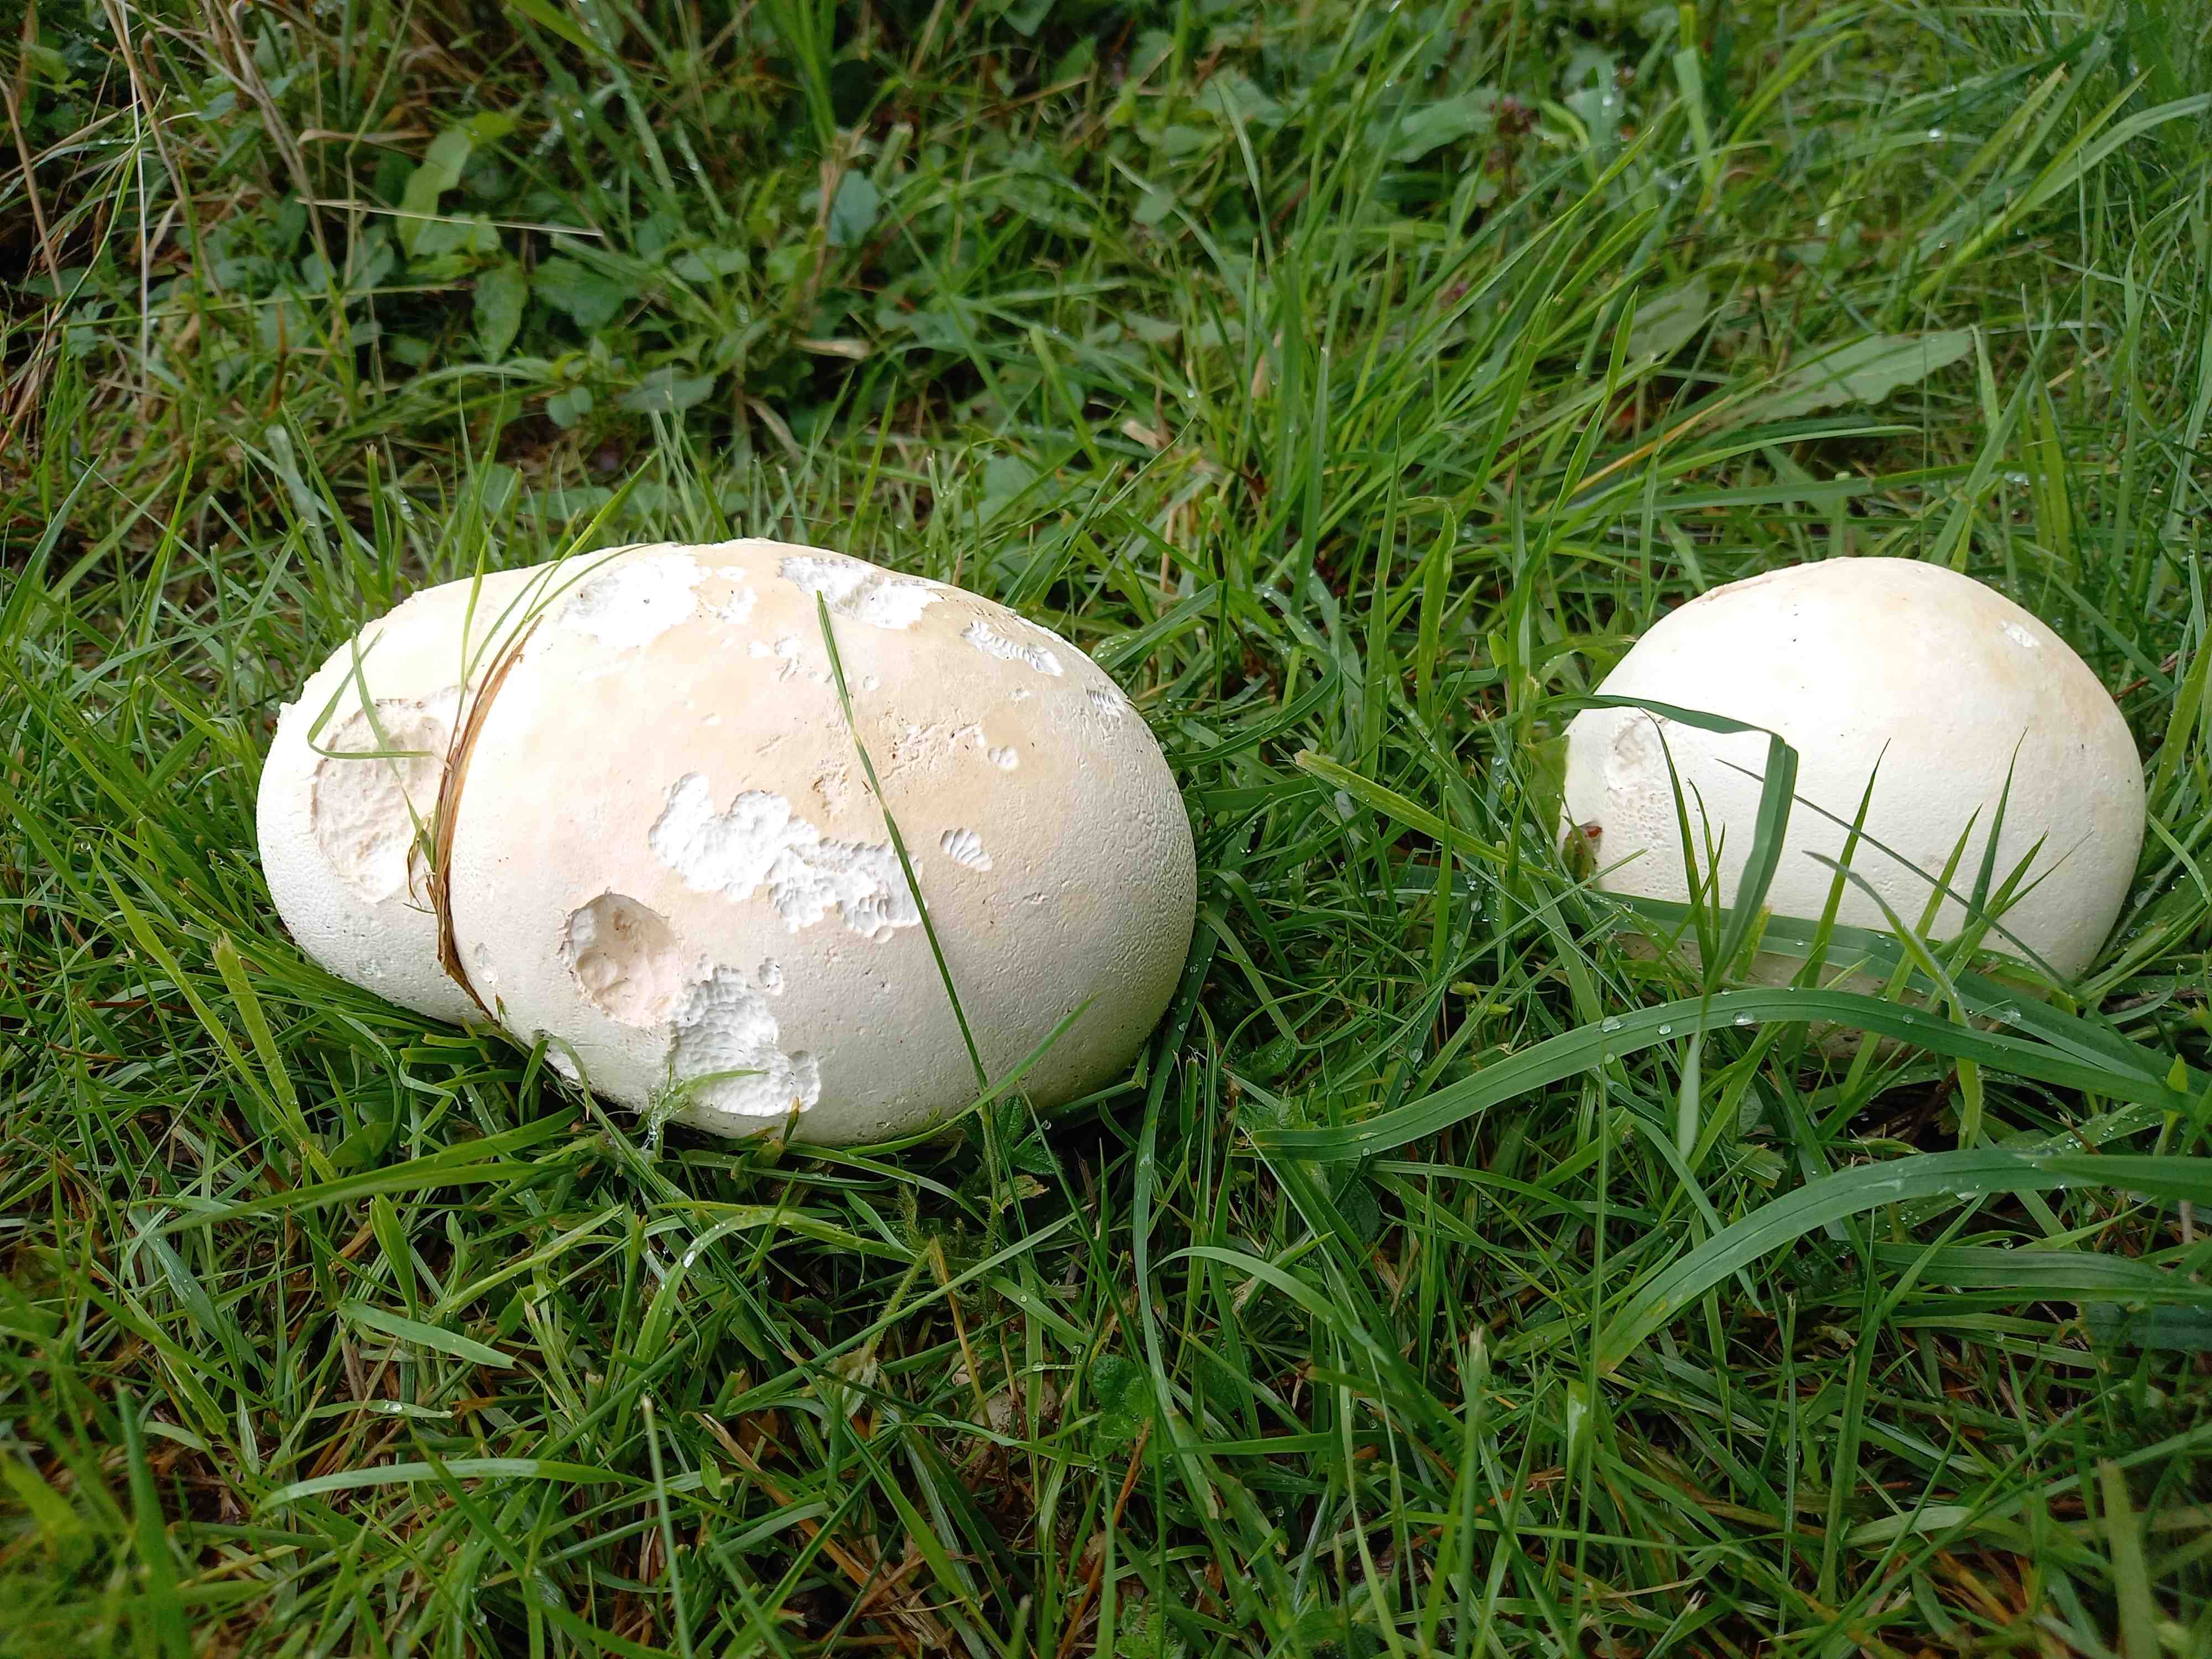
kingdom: Fungi
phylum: Basidiomycota
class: Agaricomycetes
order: Agaricales
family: Lycoperdaceae
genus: Calvatia
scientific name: Calvatia gigantea
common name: kæmpestøvbold
